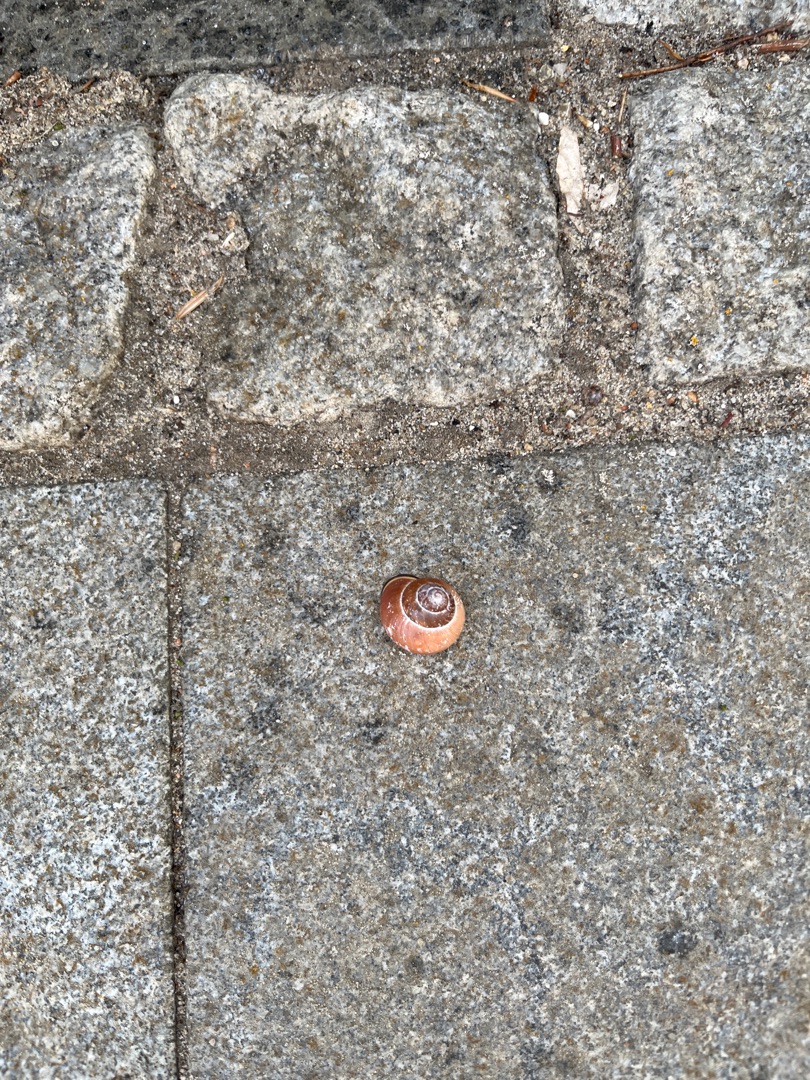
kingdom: Animalia
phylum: Mollusca
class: Gastropoda
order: Stylommatophora
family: Helicidae
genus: Cepaea
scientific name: Cepaea nemoralis
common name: Lundsnegl
